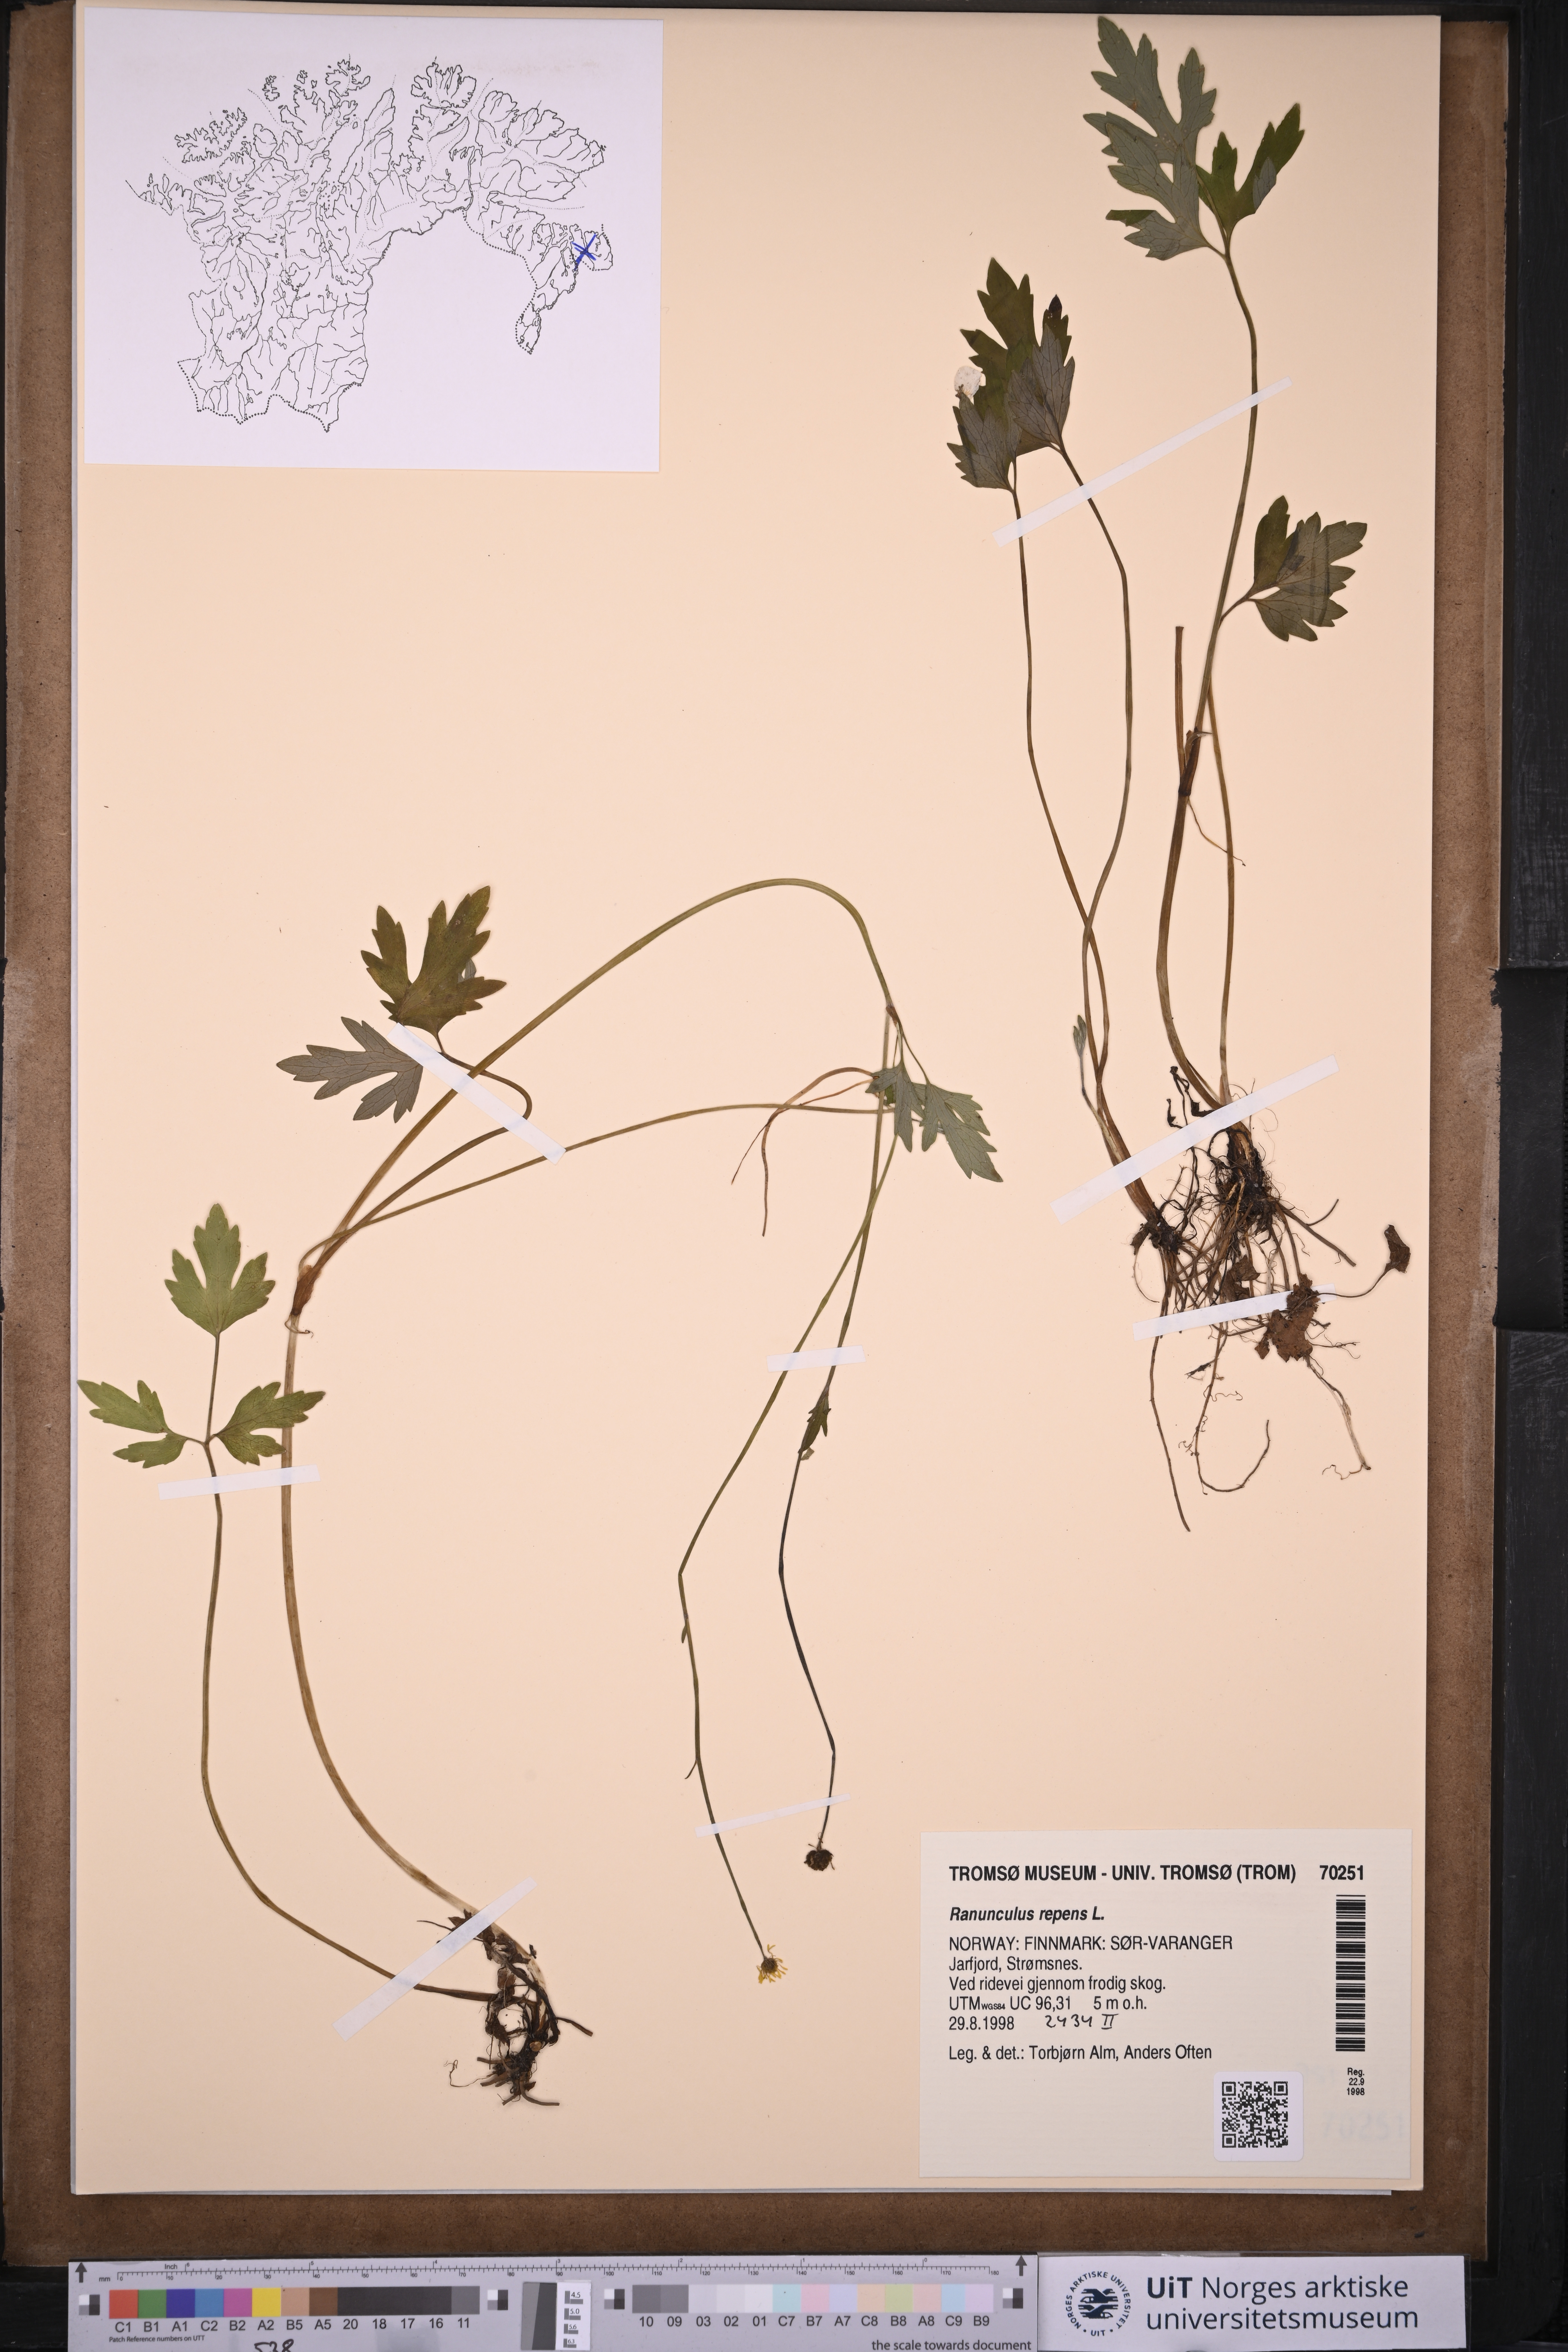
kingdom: Plantae
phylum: Tracheophyta
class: Magnoliopsida
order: Ranunculales
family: Ranunculaceae
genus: Ranunculus
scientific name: Ranunculus repens
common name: Creeping buttercup
